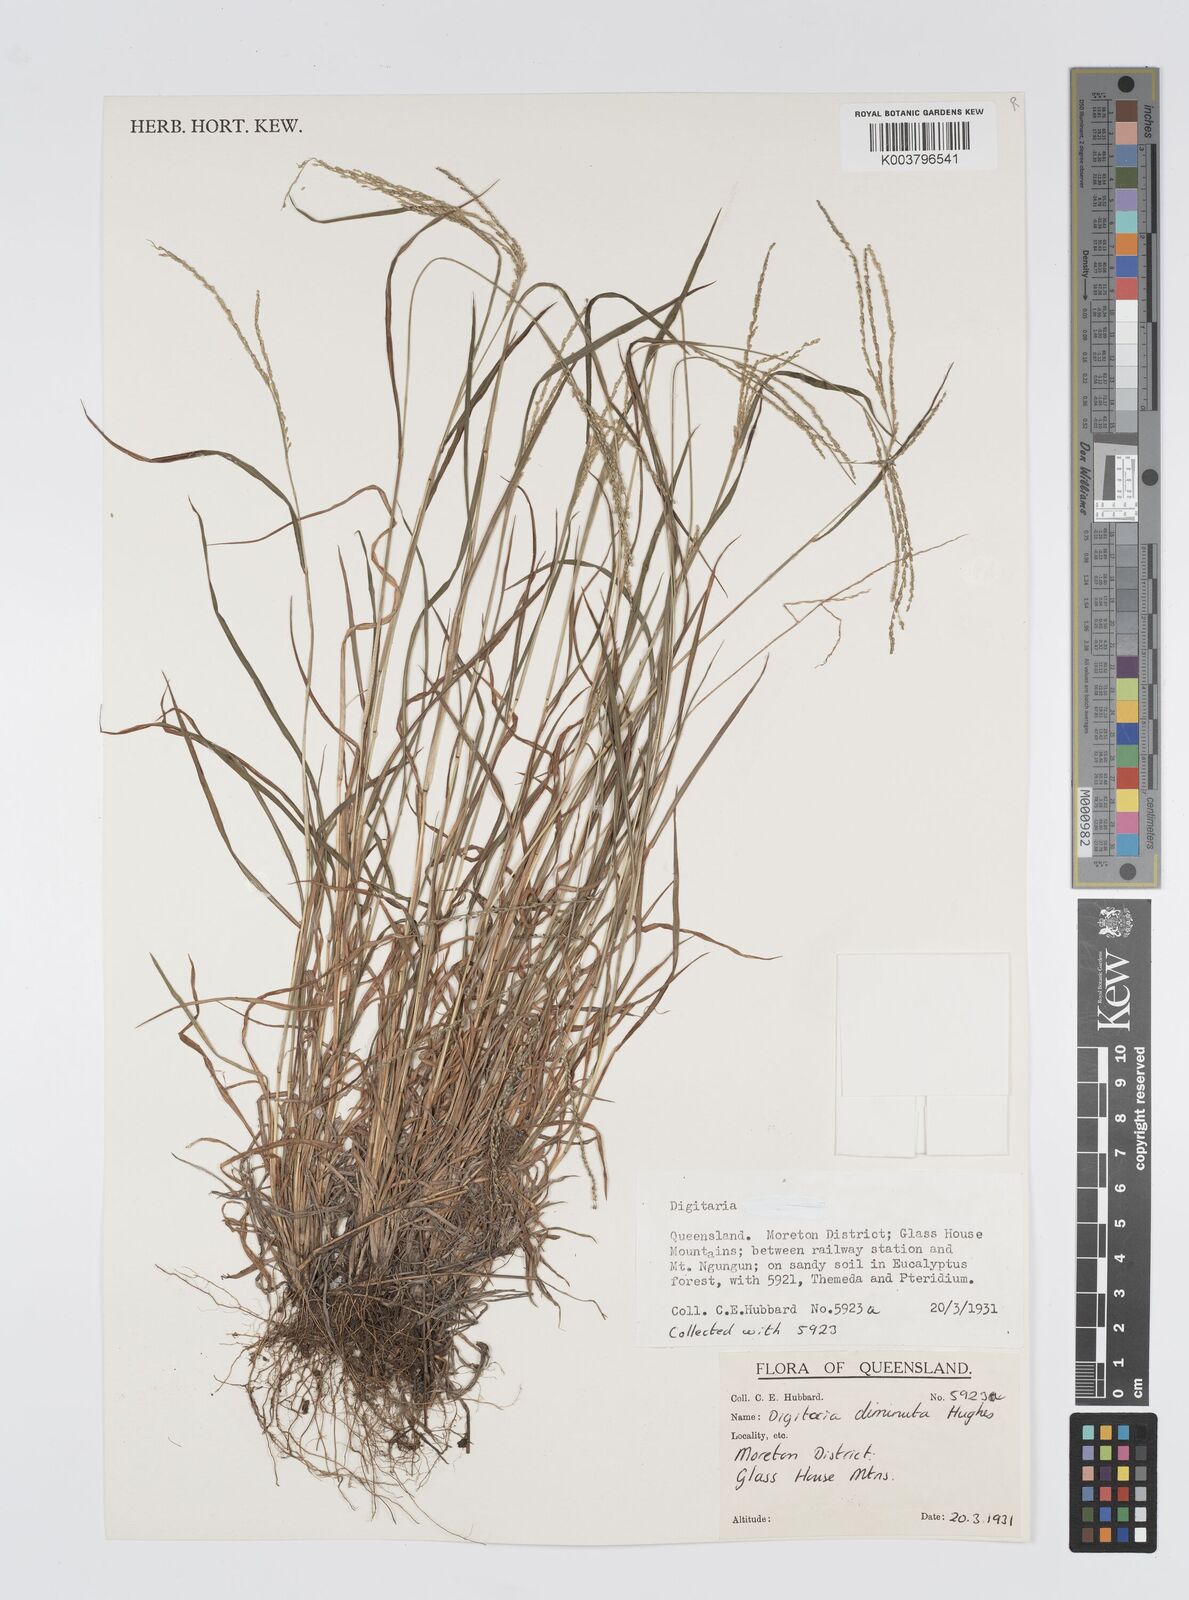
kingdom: Plantae
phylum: Tracheophyta
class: Liliopsida
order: Poales
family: Poaceae
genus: Digitaria
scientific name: Digitaria breviglumis
